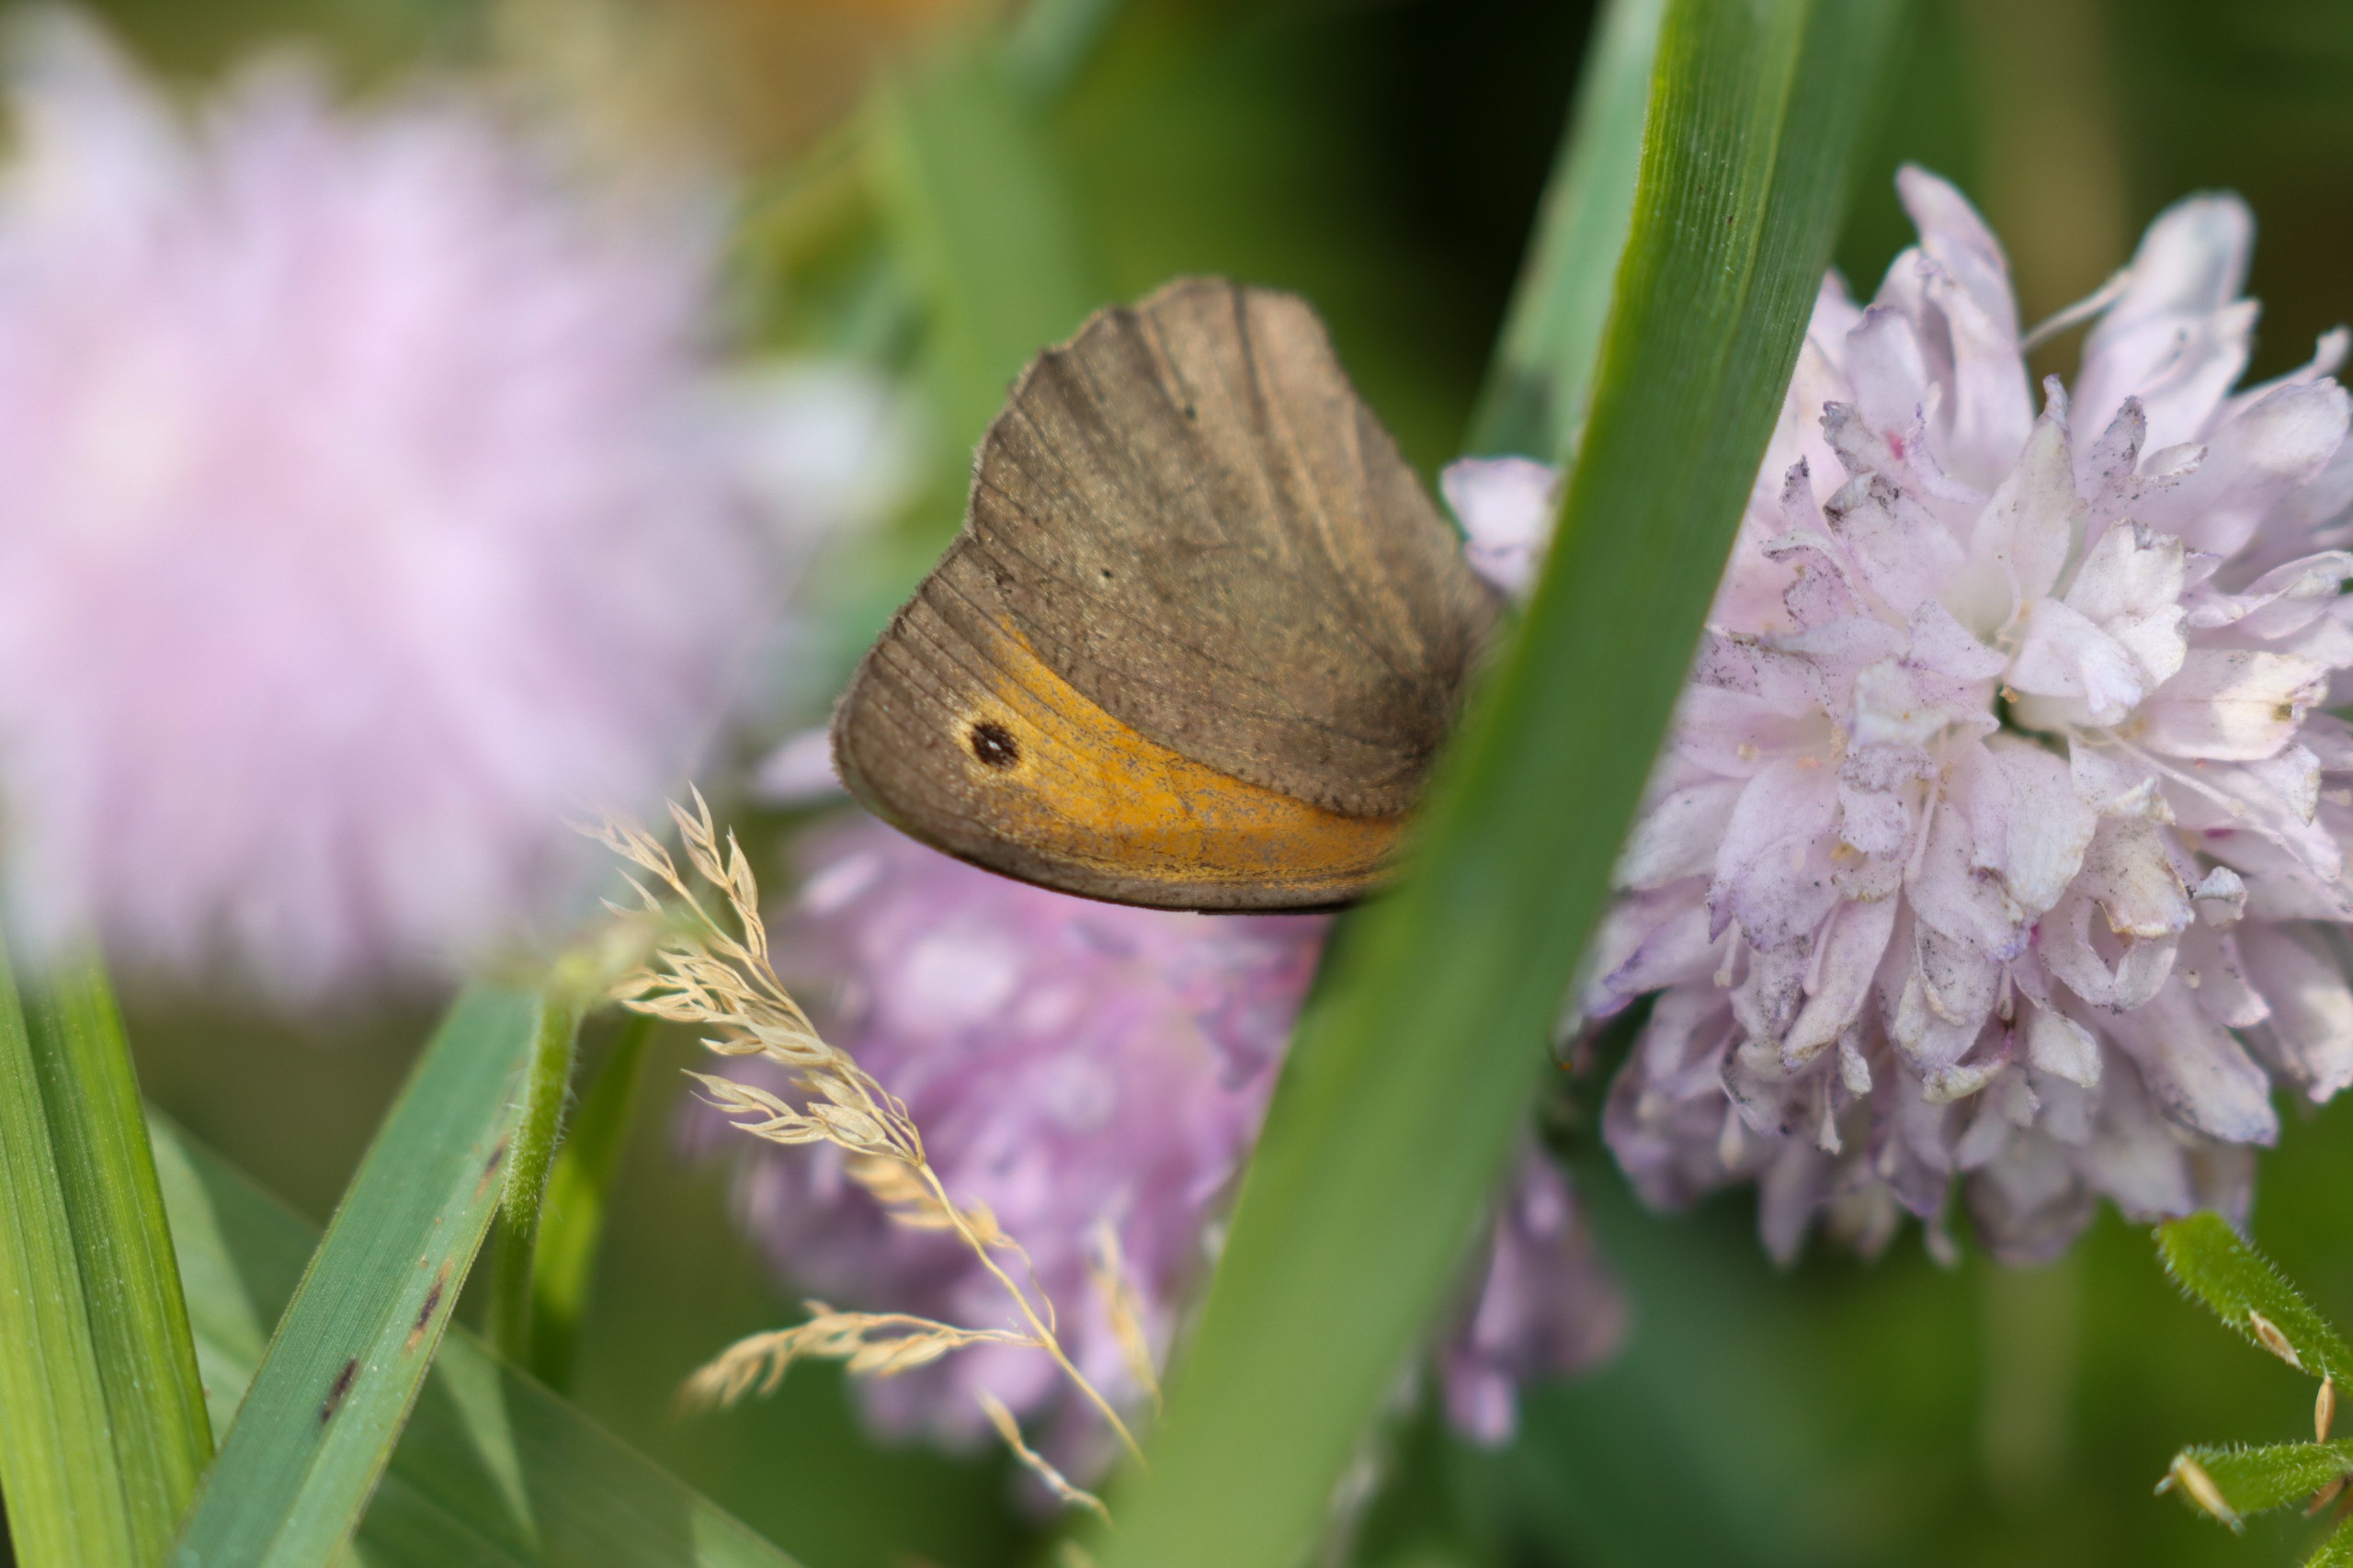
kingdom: Animalia
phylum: Arthropoda
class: Insecta
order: Lepidoptera
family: Nymphalidae
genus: Maniola
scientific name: Maniola jurtina
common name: Græsrandøje
